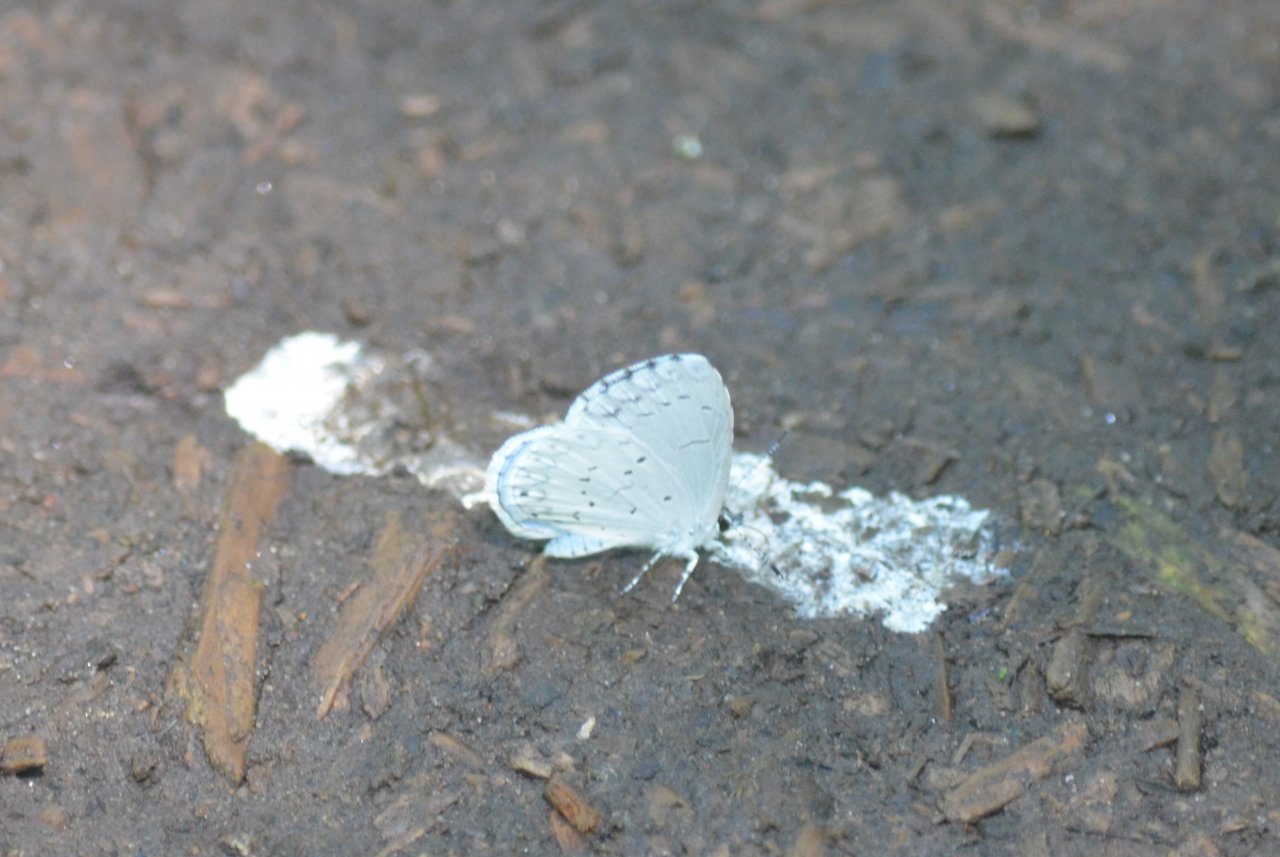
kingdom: Animalia
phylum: Arthropoda
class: Insecta
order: Lepidoptera
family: Lycaenidae
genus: Celastrina
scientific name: Celastrina lucia
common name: Northern Spring Azure
